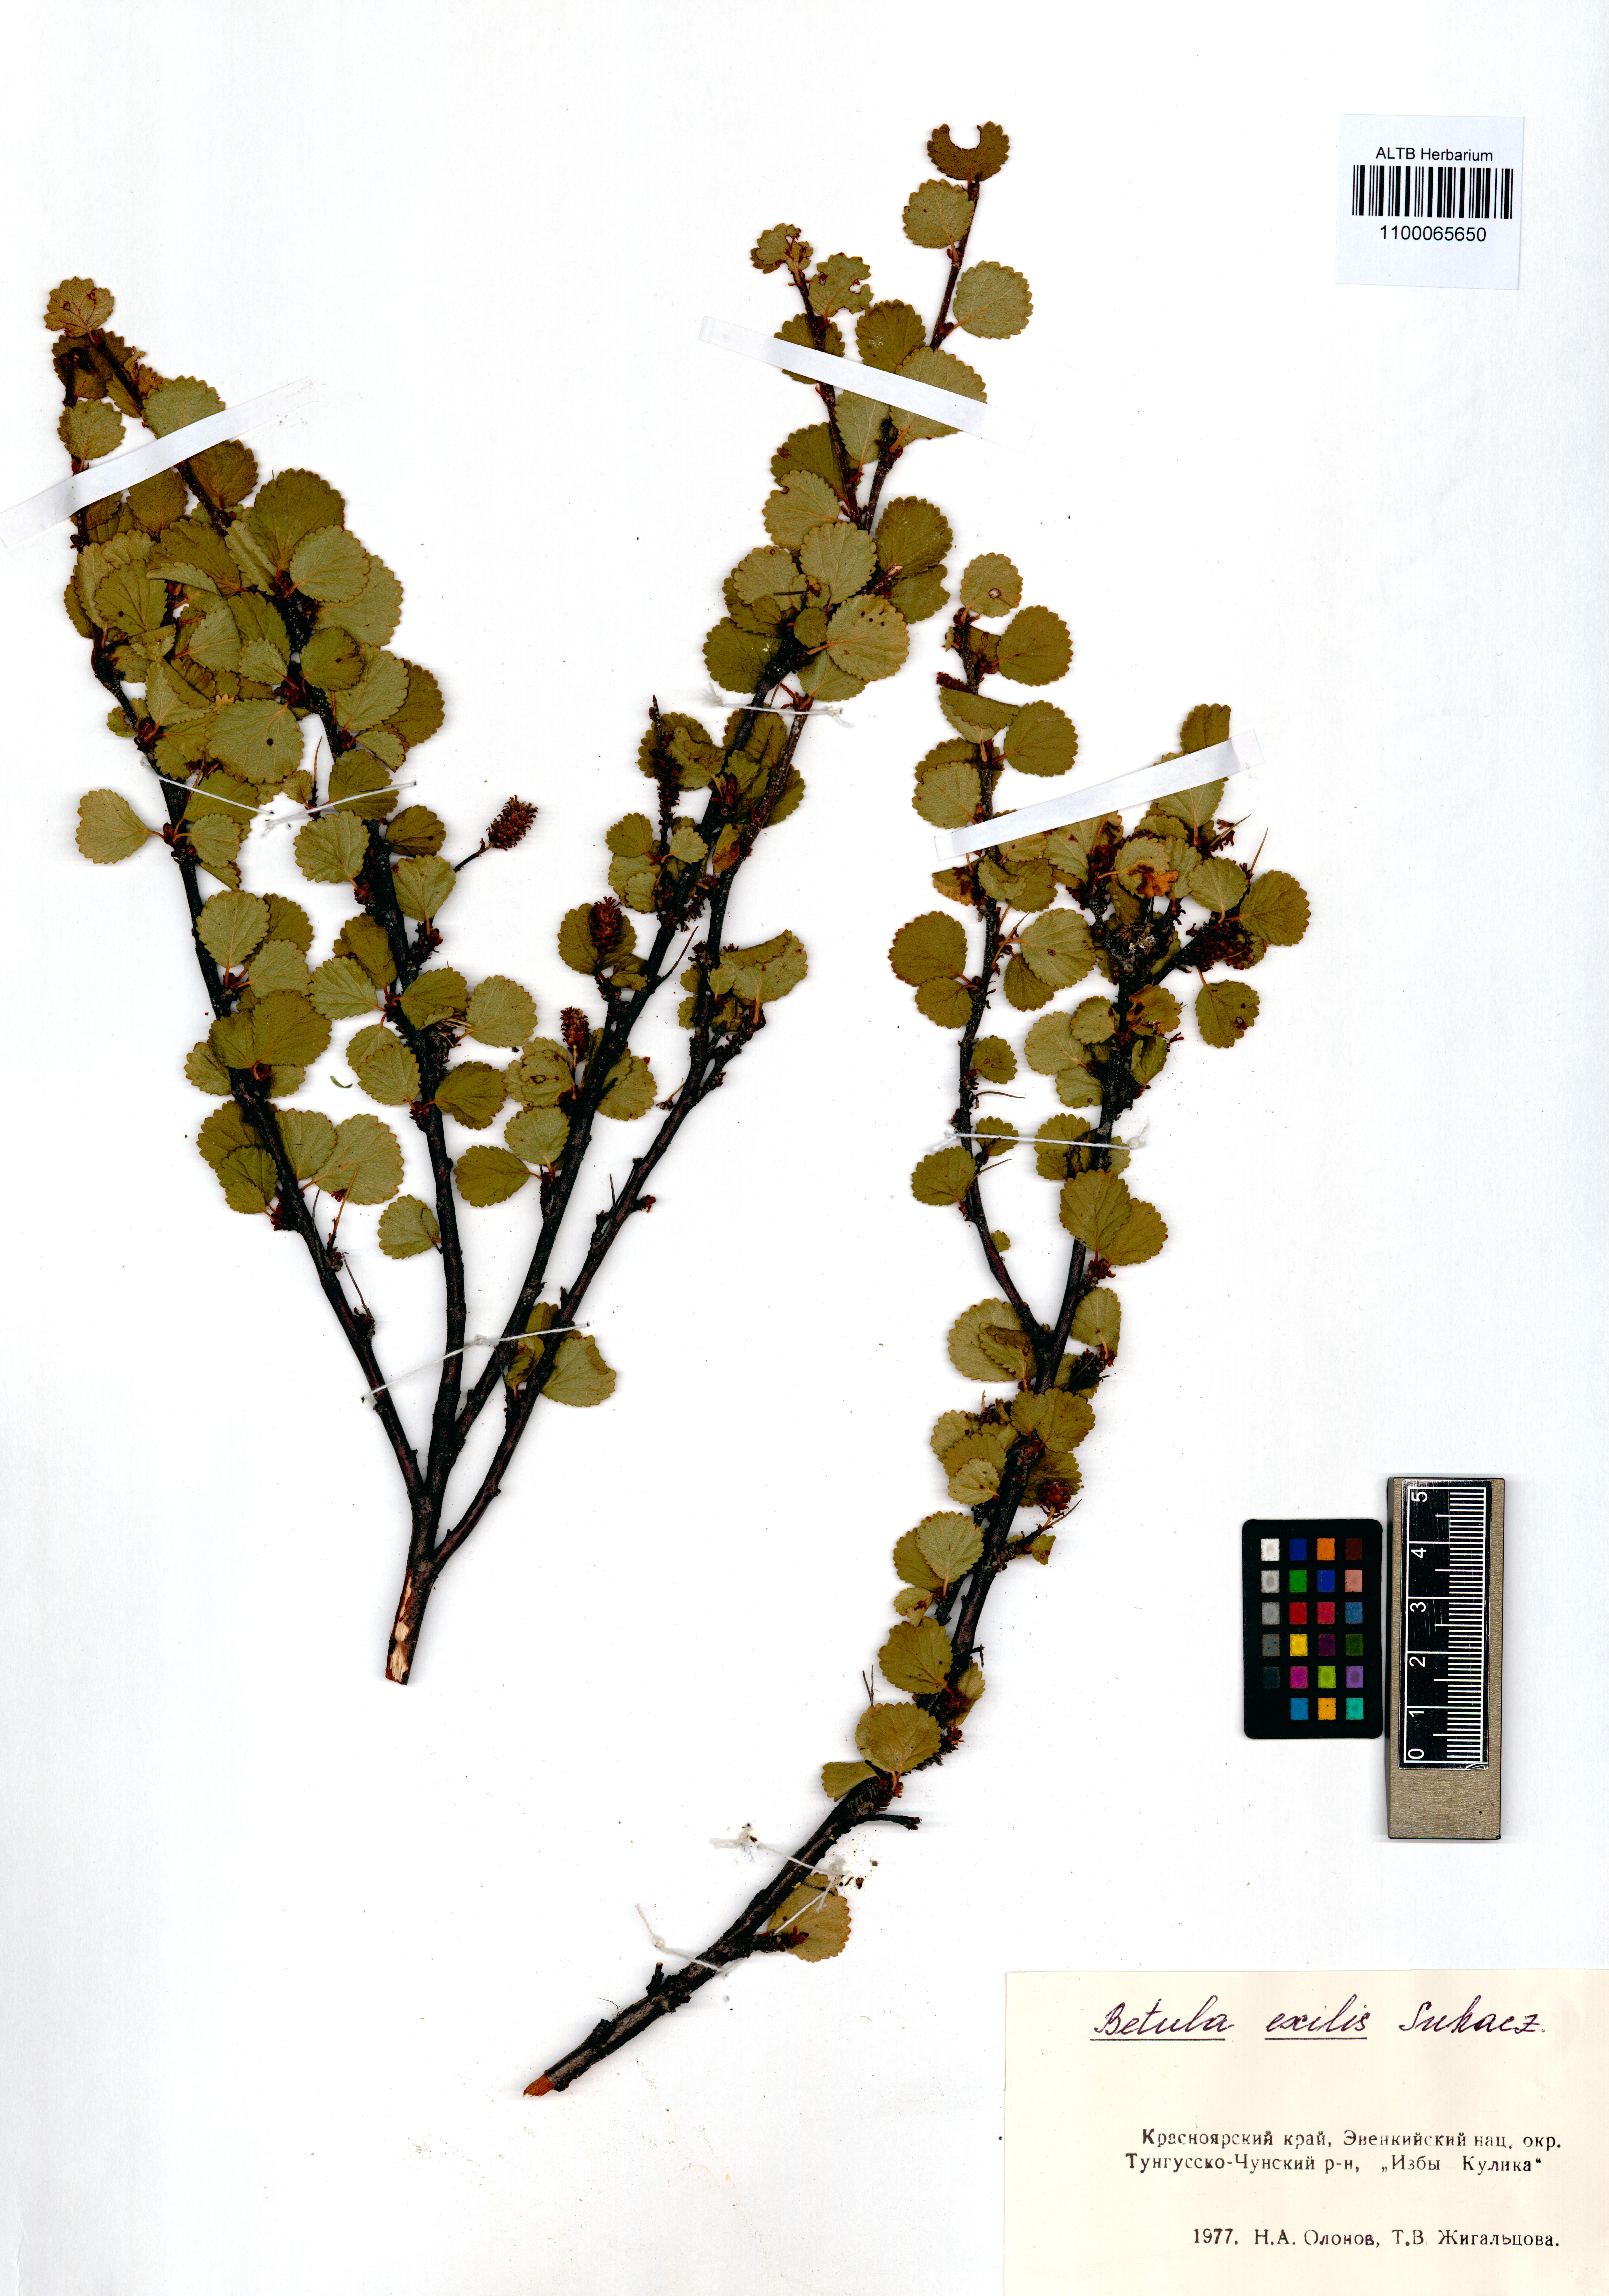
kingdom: Plantae
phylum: Tracheophyta
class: Magnoliopsida
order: Fagales
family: Betulaceae
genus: Betula
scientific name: Betula glandulosa
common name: Dwarf birch
